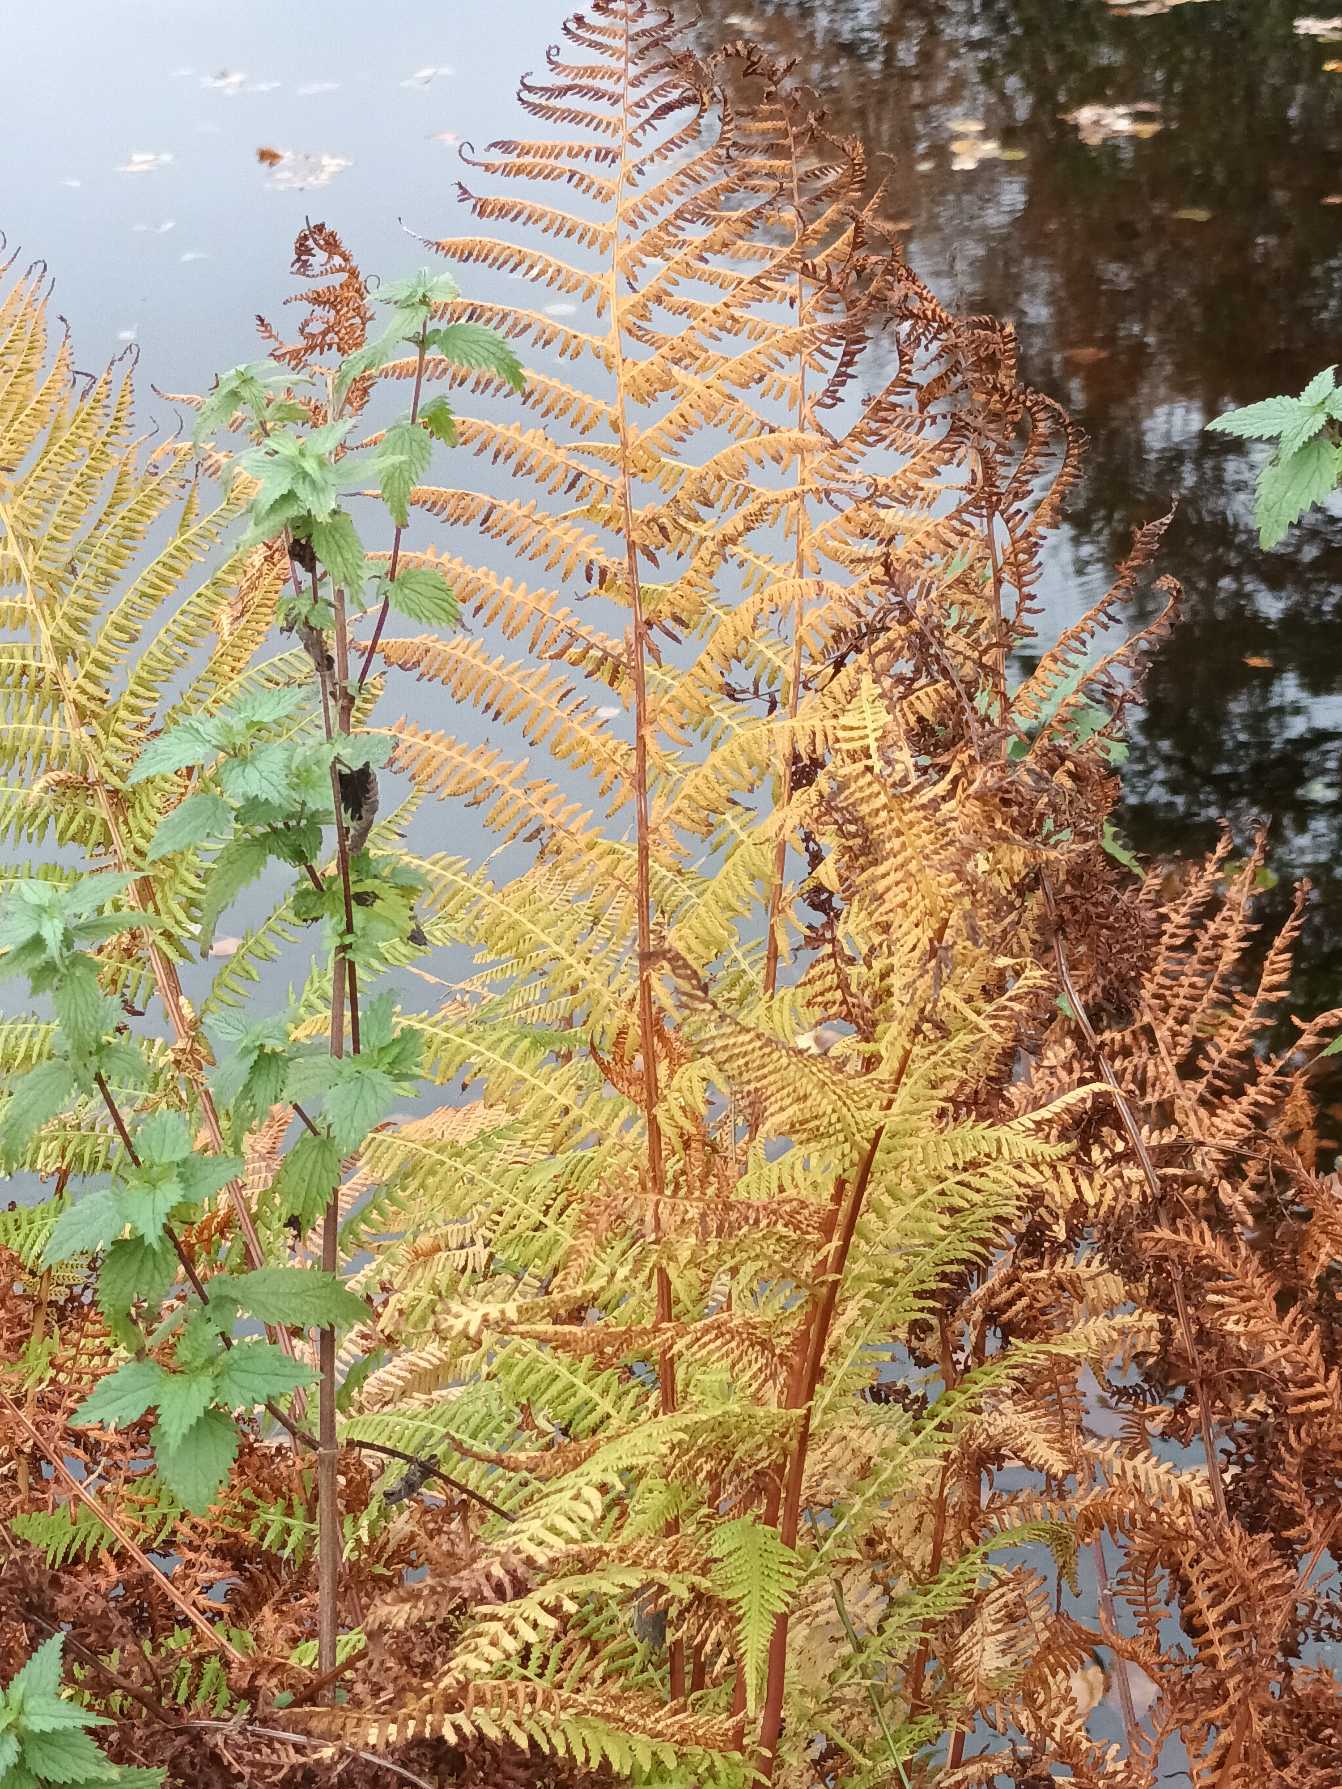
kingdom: Plantae
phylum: Tracheophyta
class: Polypodiopsida
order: Polypodiales
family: Athyriaceae
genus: Athyrium
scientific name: Athyrium filix-femina
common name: Fjerbregne
